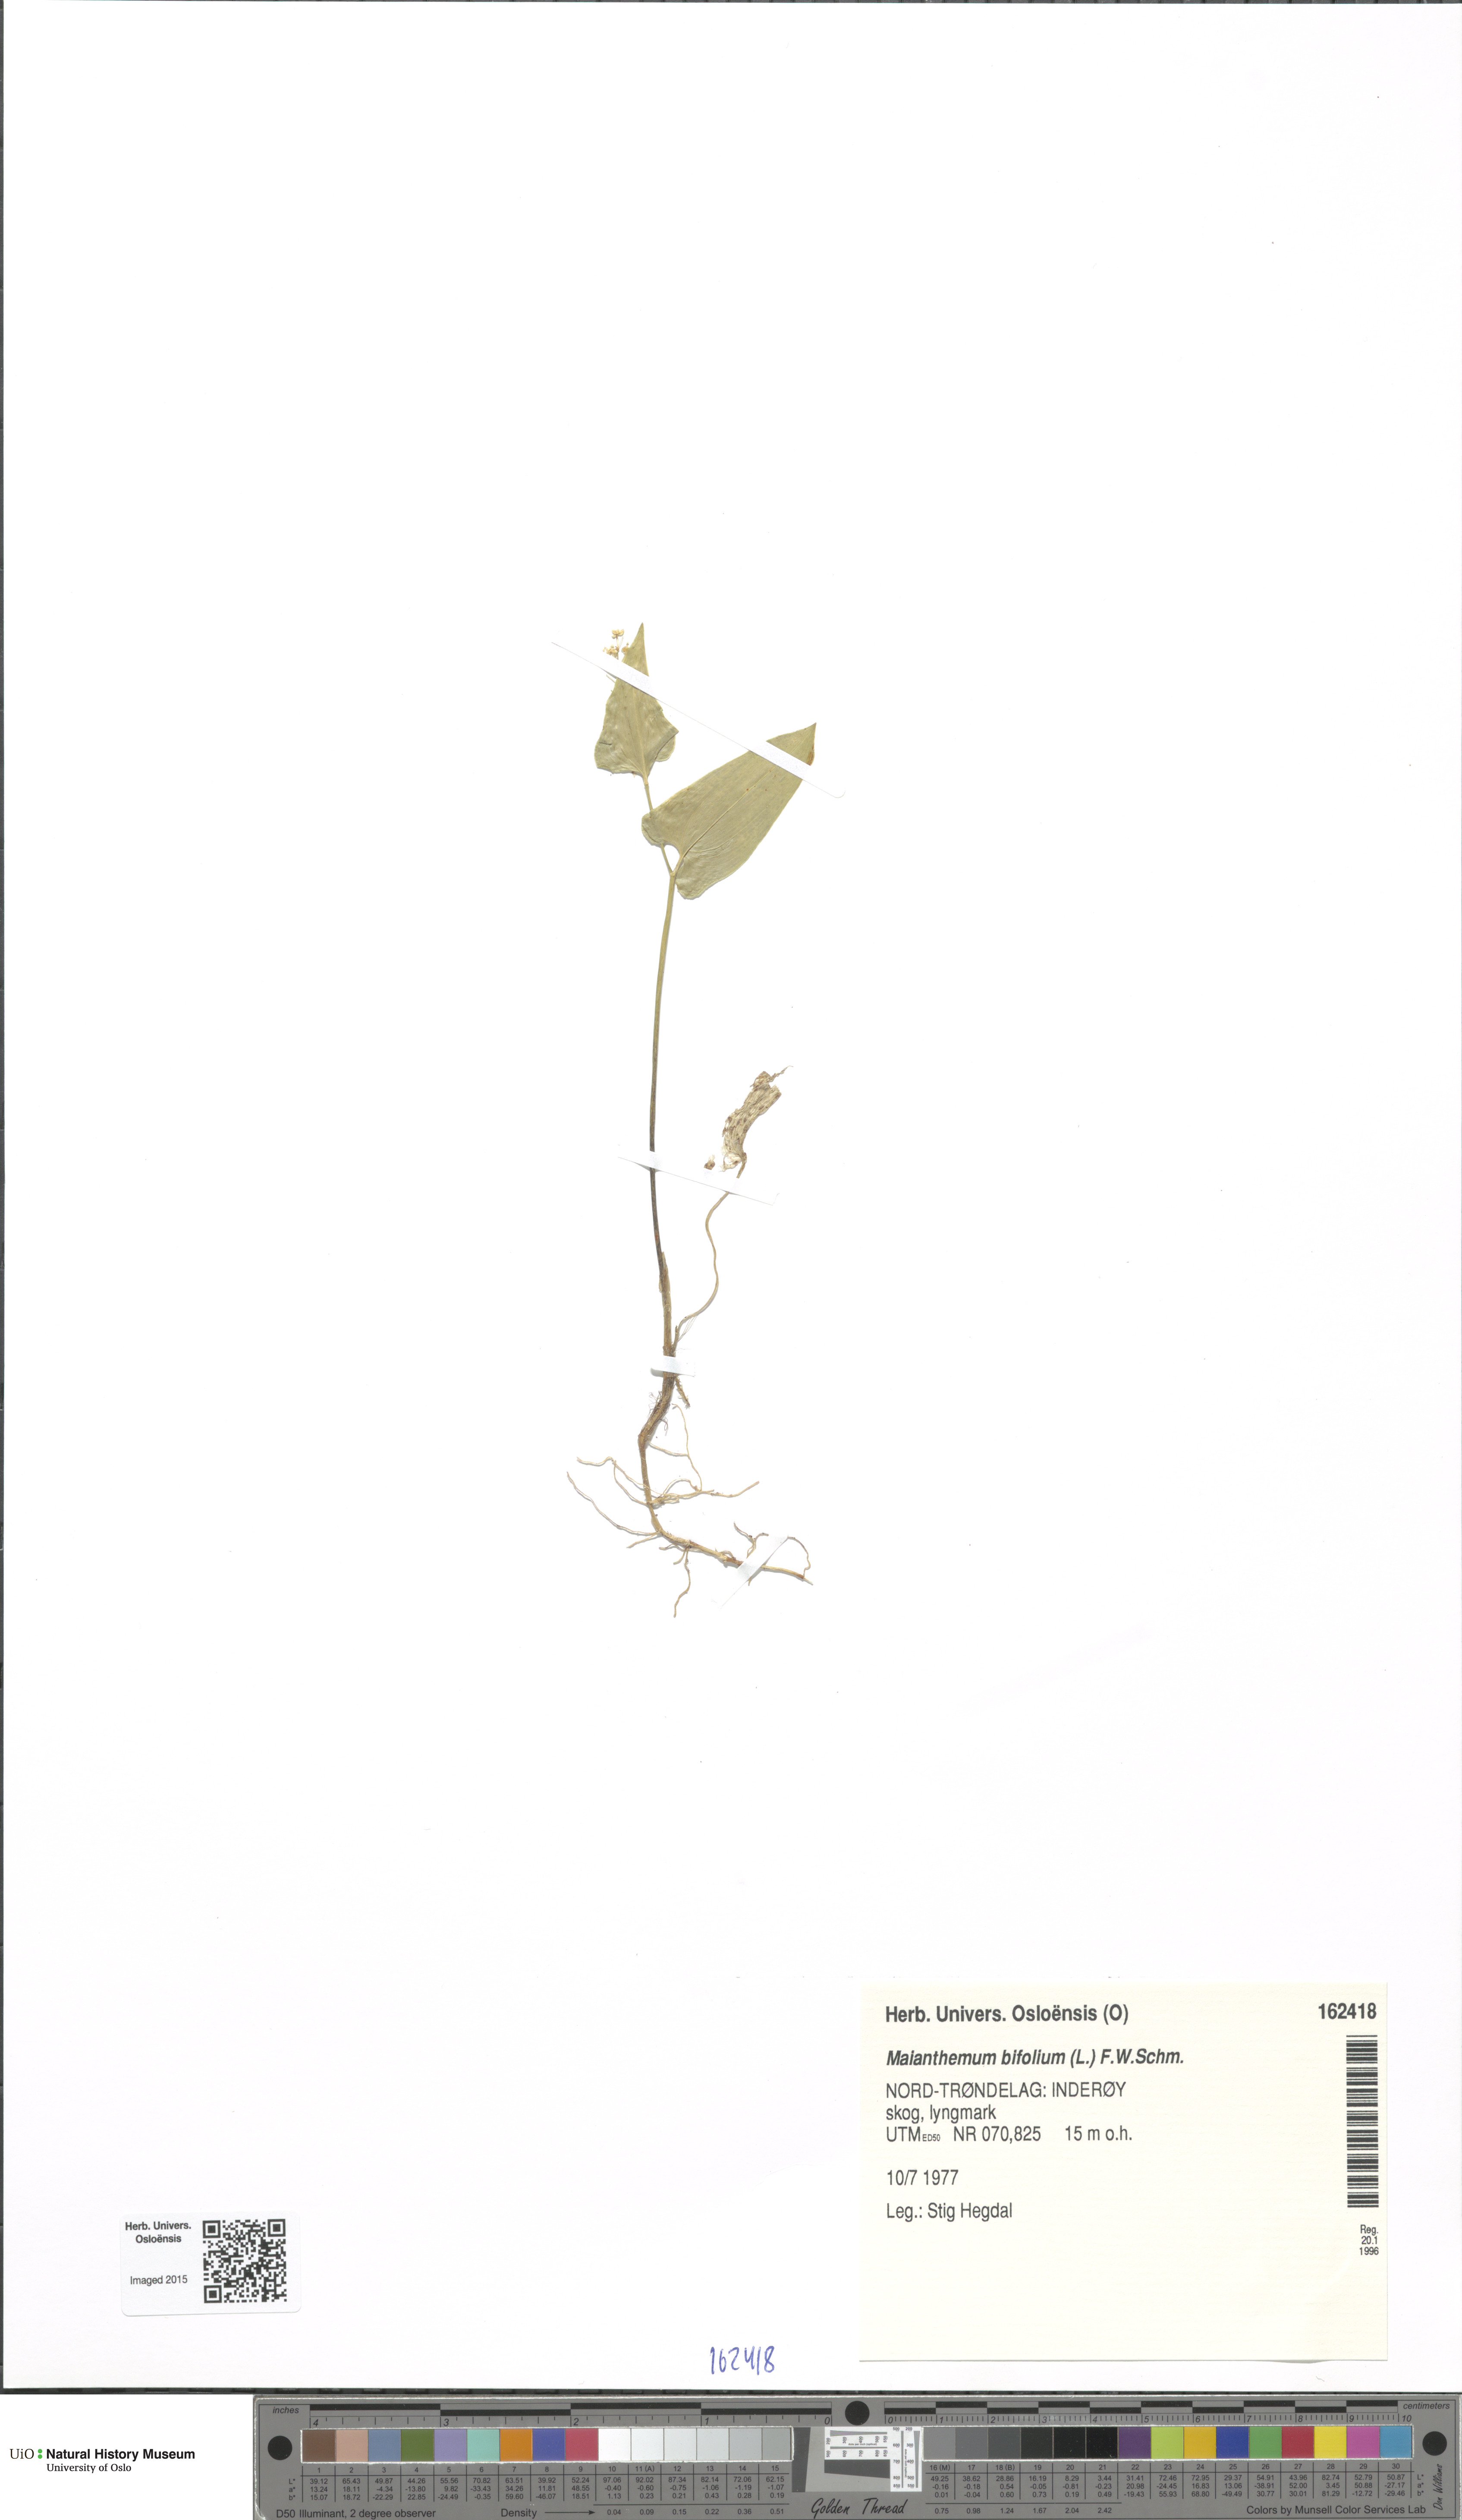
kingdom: Plantae
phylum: Tracheophyta
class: Liliopsida
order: Asparagales
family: Asparagaceae
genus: Maianthemum
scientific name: Maianthemum bifolium
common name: May lily
